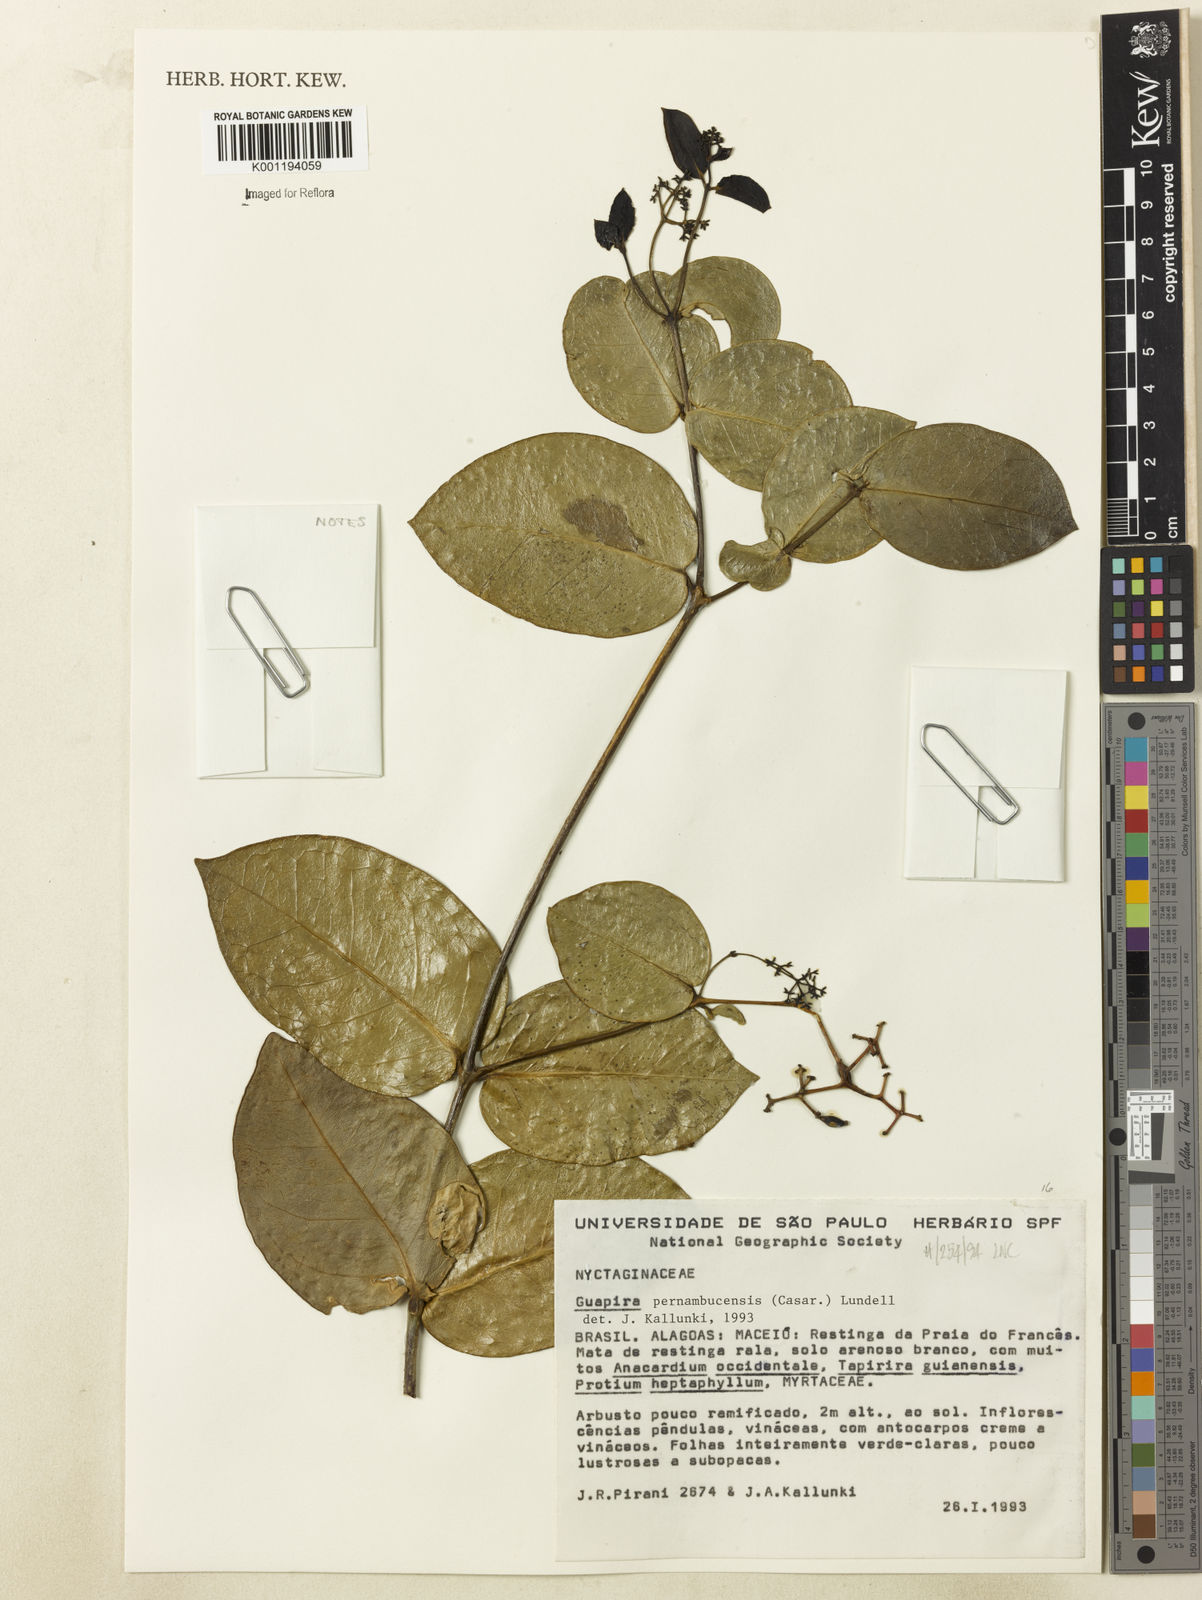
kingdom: Plantae
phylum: Tracheophyta
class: Magnoliopsida
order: Caryophyllales
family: Nyctaginaceae
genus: Guapira
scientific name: Guapira pernambucensis
